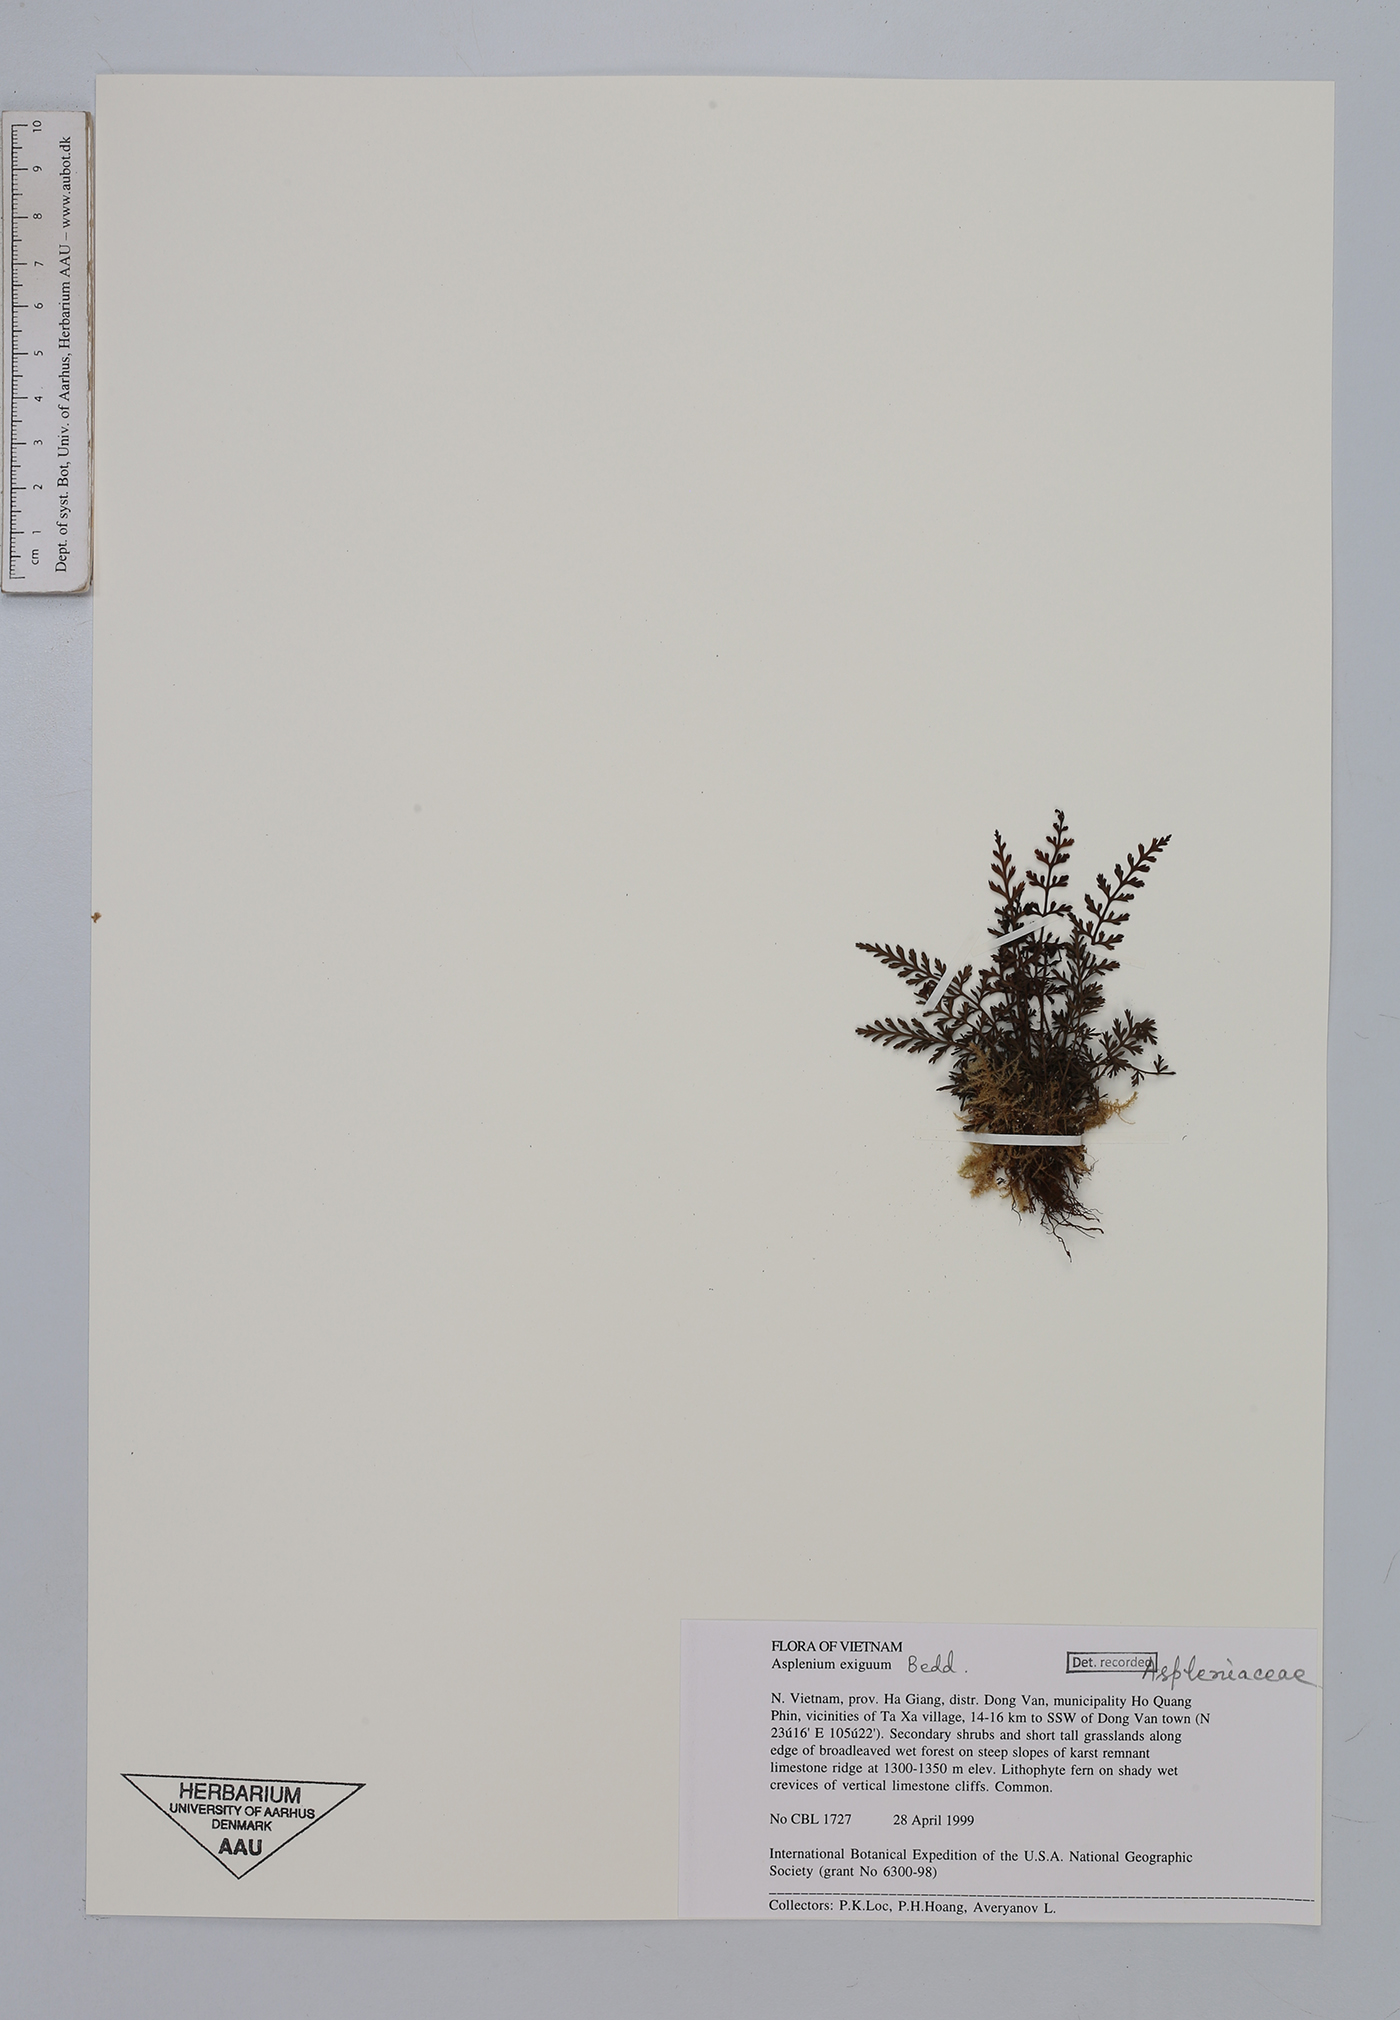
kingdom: Plantae
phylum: Tracheophyta
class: Polypodiopsida
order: Polypodiales
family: Aspleniaceae
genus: Asplenium
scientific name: Asplenium exiguum
